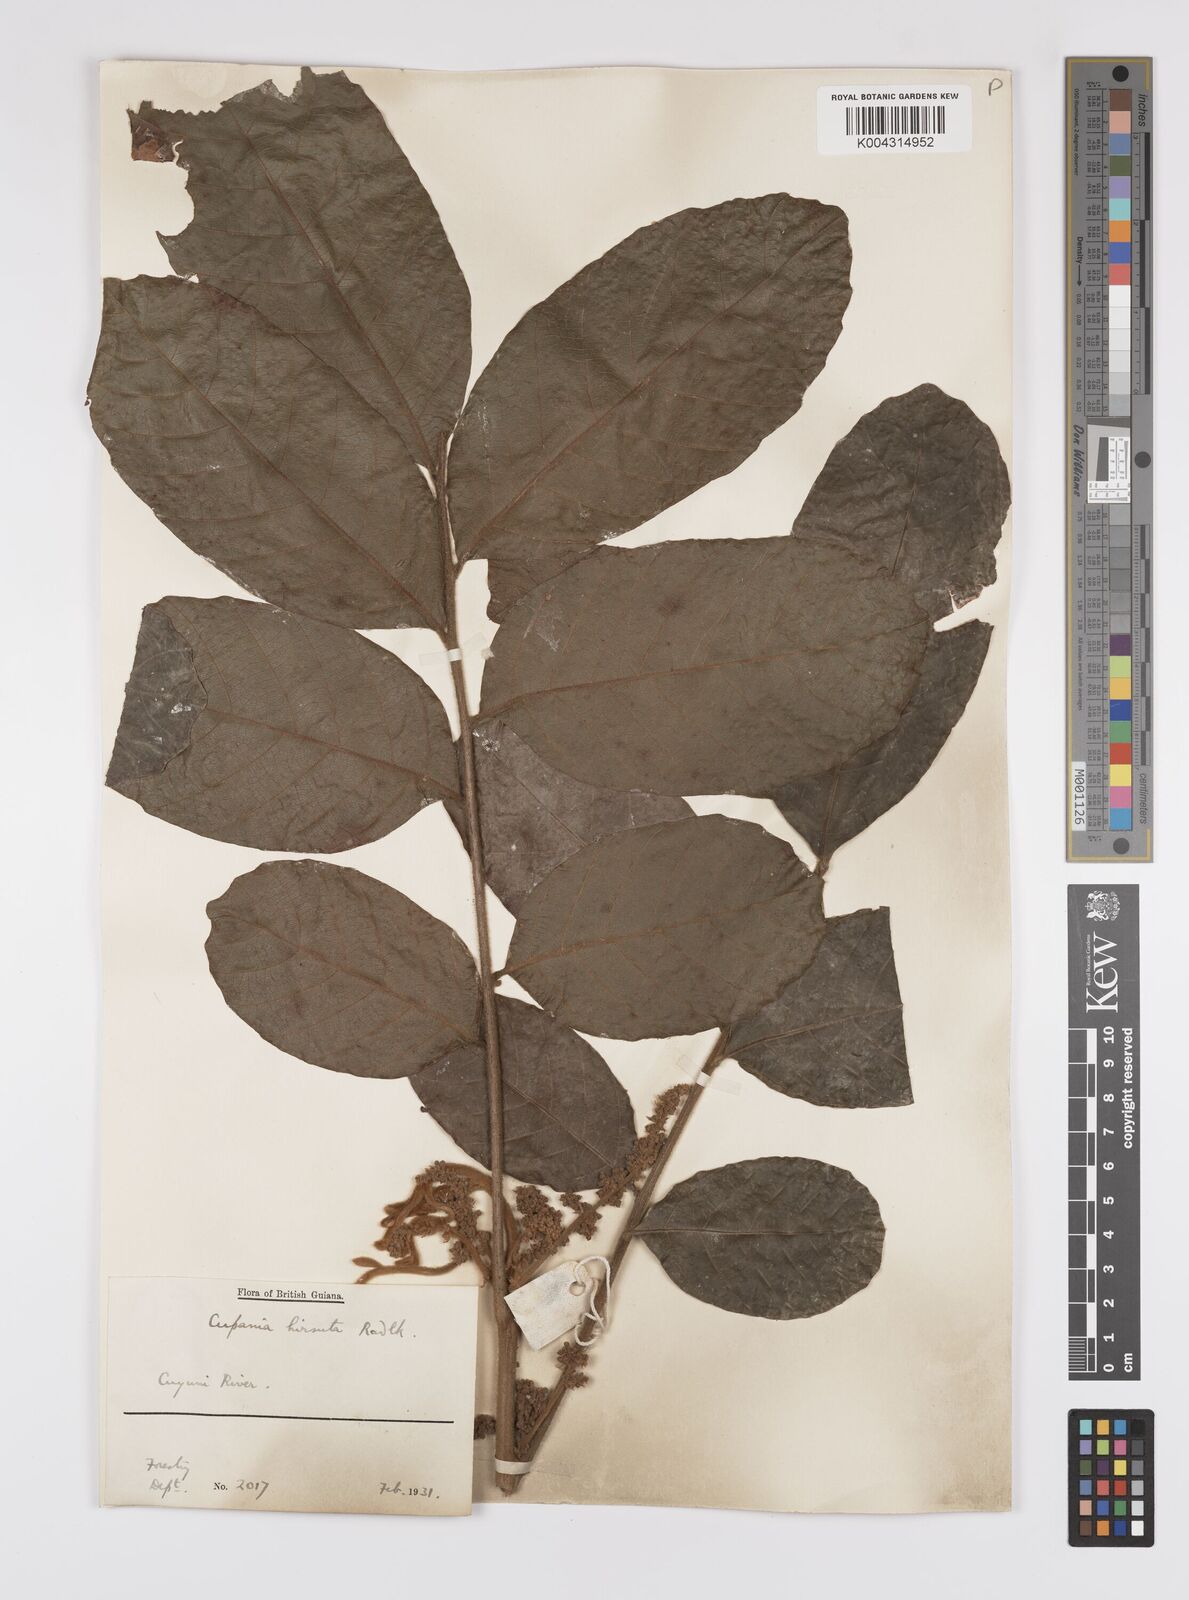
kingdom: Plantae
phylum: Tracheophyta
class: Magnoliopsida
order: Sapindales
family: Sapindaceae
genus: Cupania
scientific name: Cupania hirsuta
